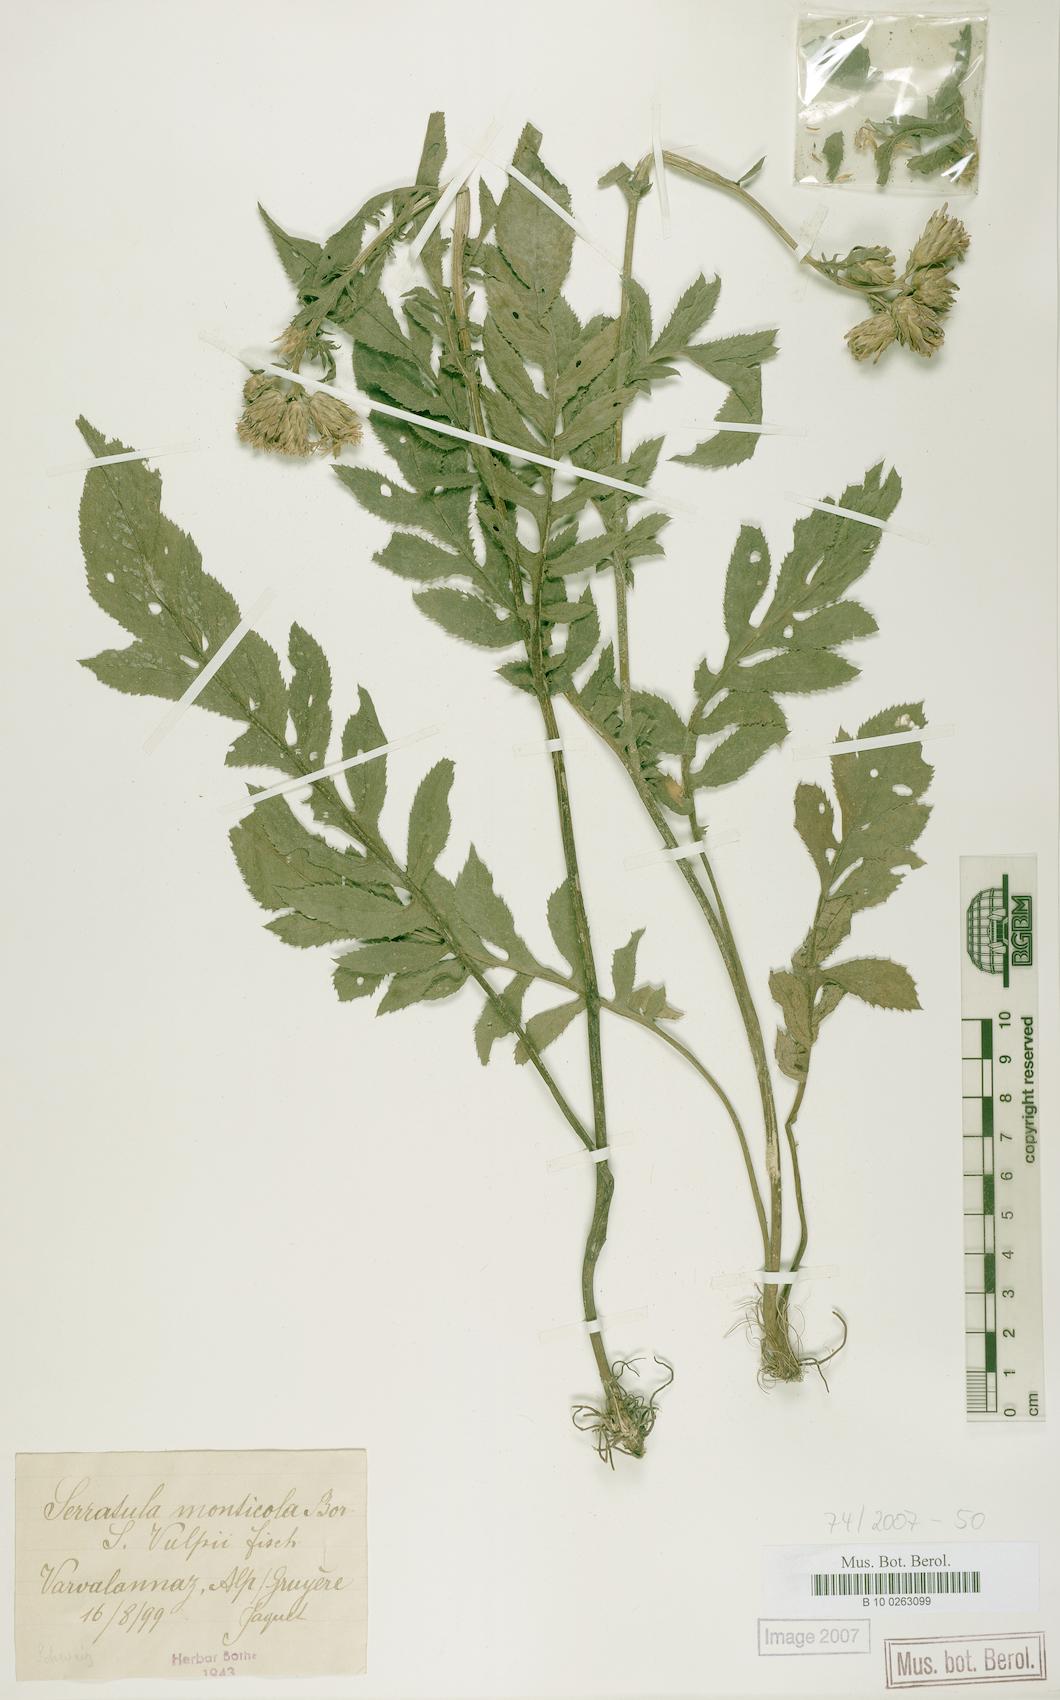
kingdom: Plantae
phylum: Tracheophyta
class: Magnoliopsida
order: Asterales
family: Asteraceae
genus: Serratula
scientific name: Serratula tinctoria
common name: Saw-wort
